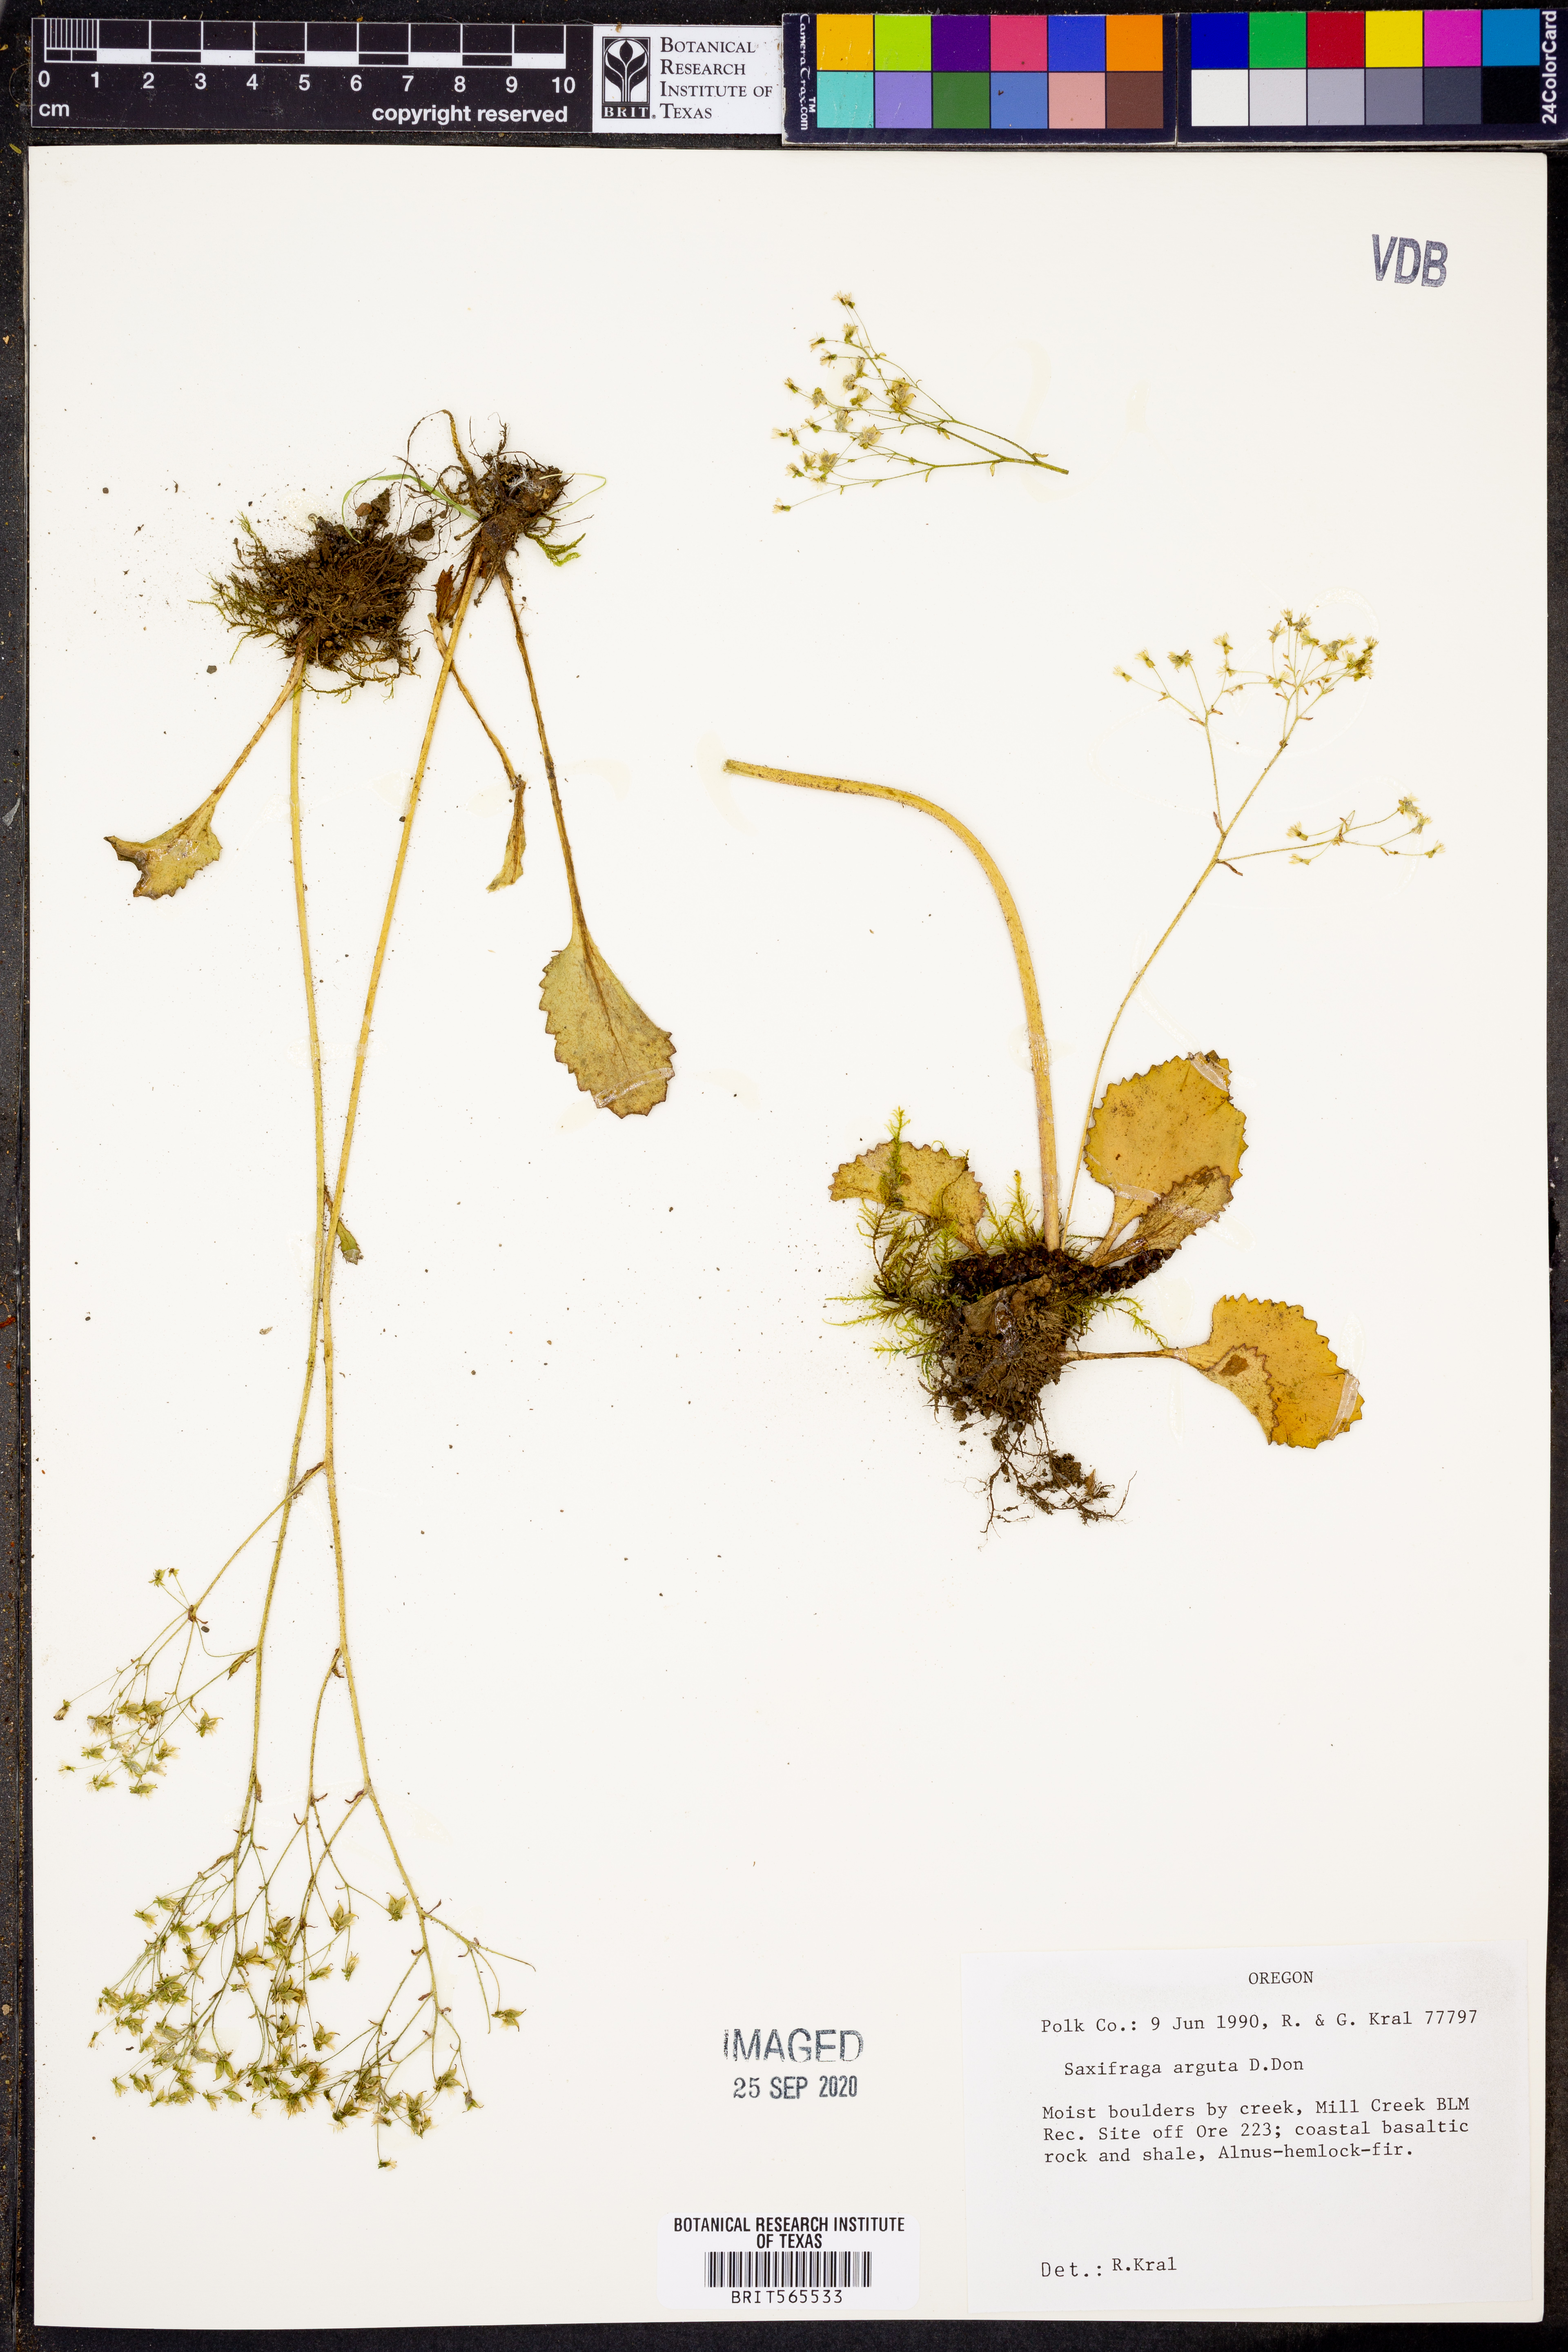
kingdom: Plantae
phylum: Tracheophyta
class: Magnoliopsida
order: Saxifragales
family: Saxifragaceae
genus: Micranthes
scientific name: Micranthes nelsoniana
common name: Nelson's saxifrage
